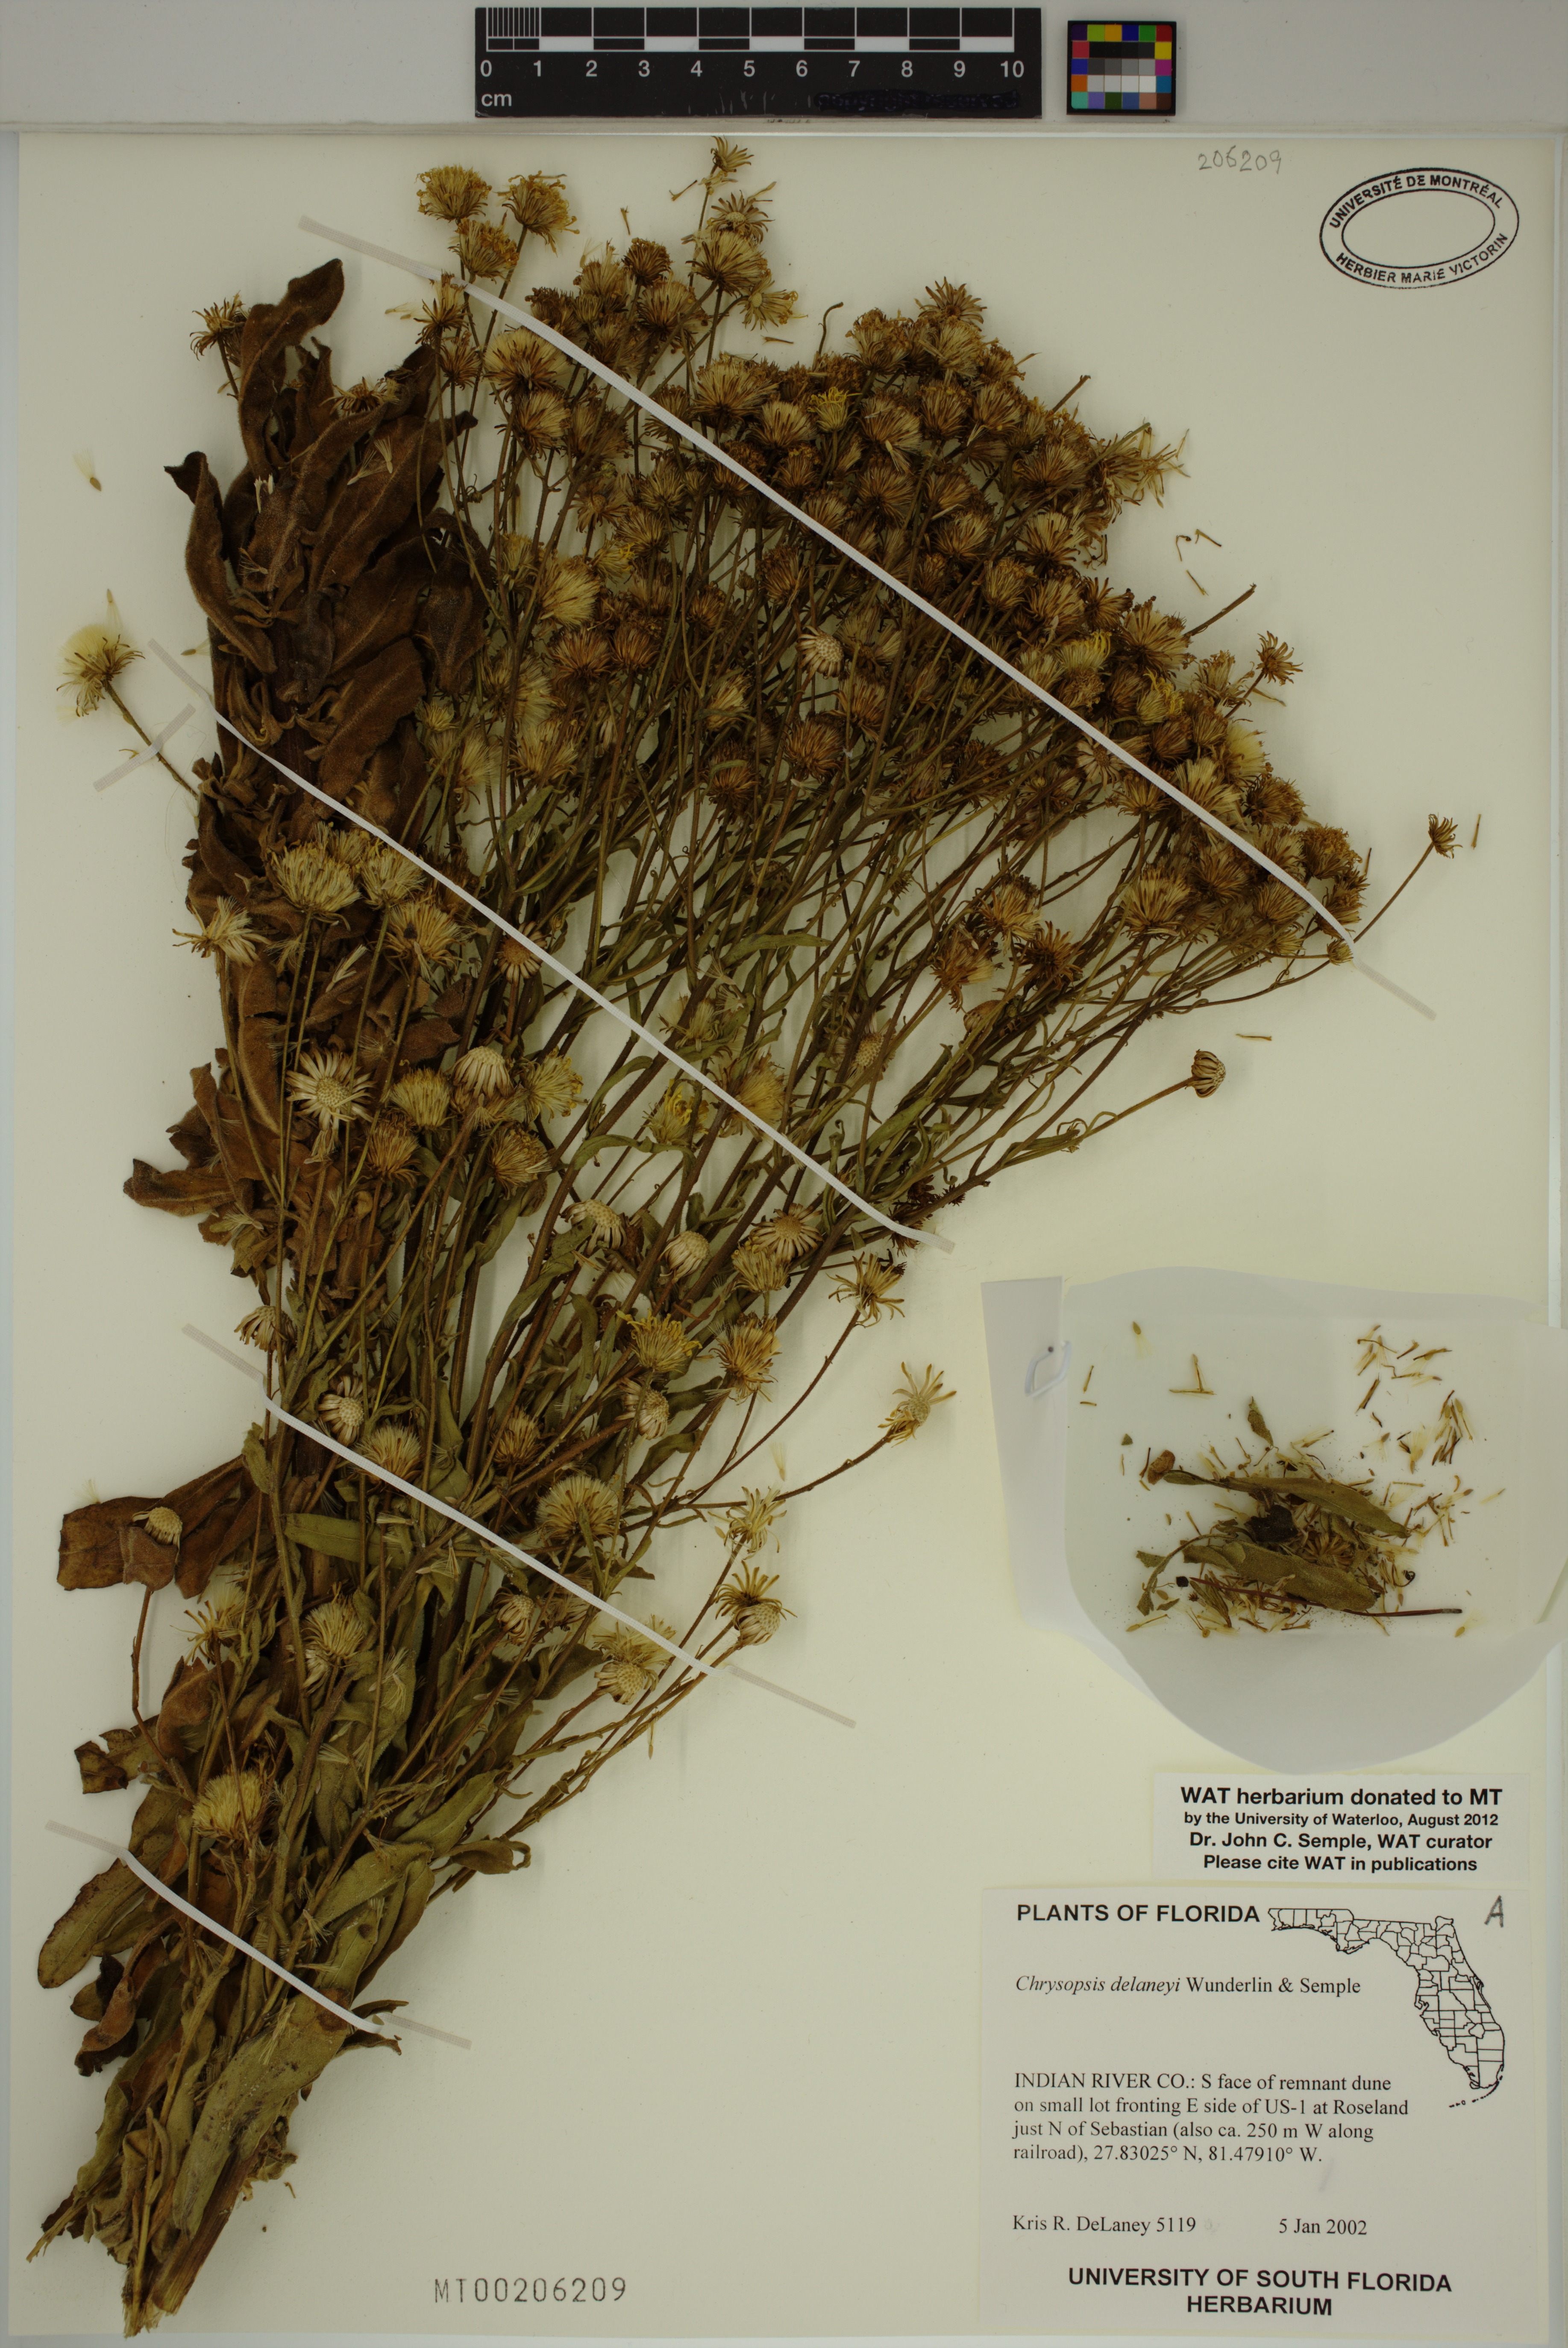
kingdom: Plantae
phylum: Tracheophyta
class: Magnoliopsida
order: Asterales
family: Asteraceae
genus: Chrysopsis
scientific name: Chrysopsis delaneyi
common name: Delaney's goldenaster
